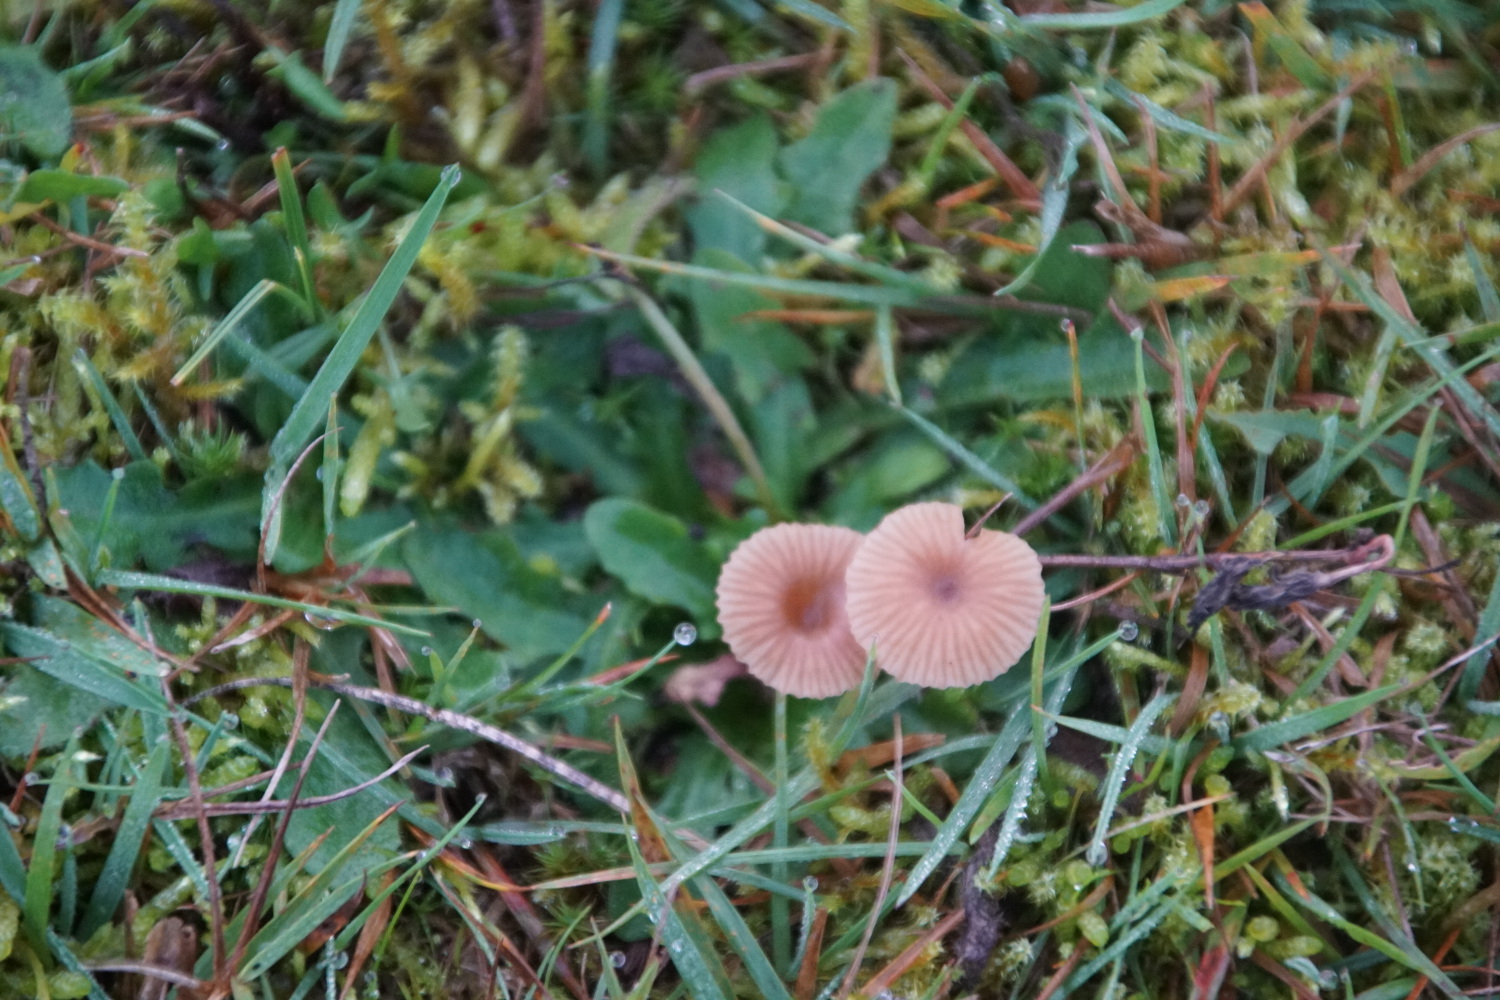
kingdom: Fungi
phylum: Basidiomycota
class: Agaricomycetes
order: Agaricales
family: Tricholomataceae
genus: Omphalina
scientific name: Omphalina pyxidata
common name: rødbrun navlehat
